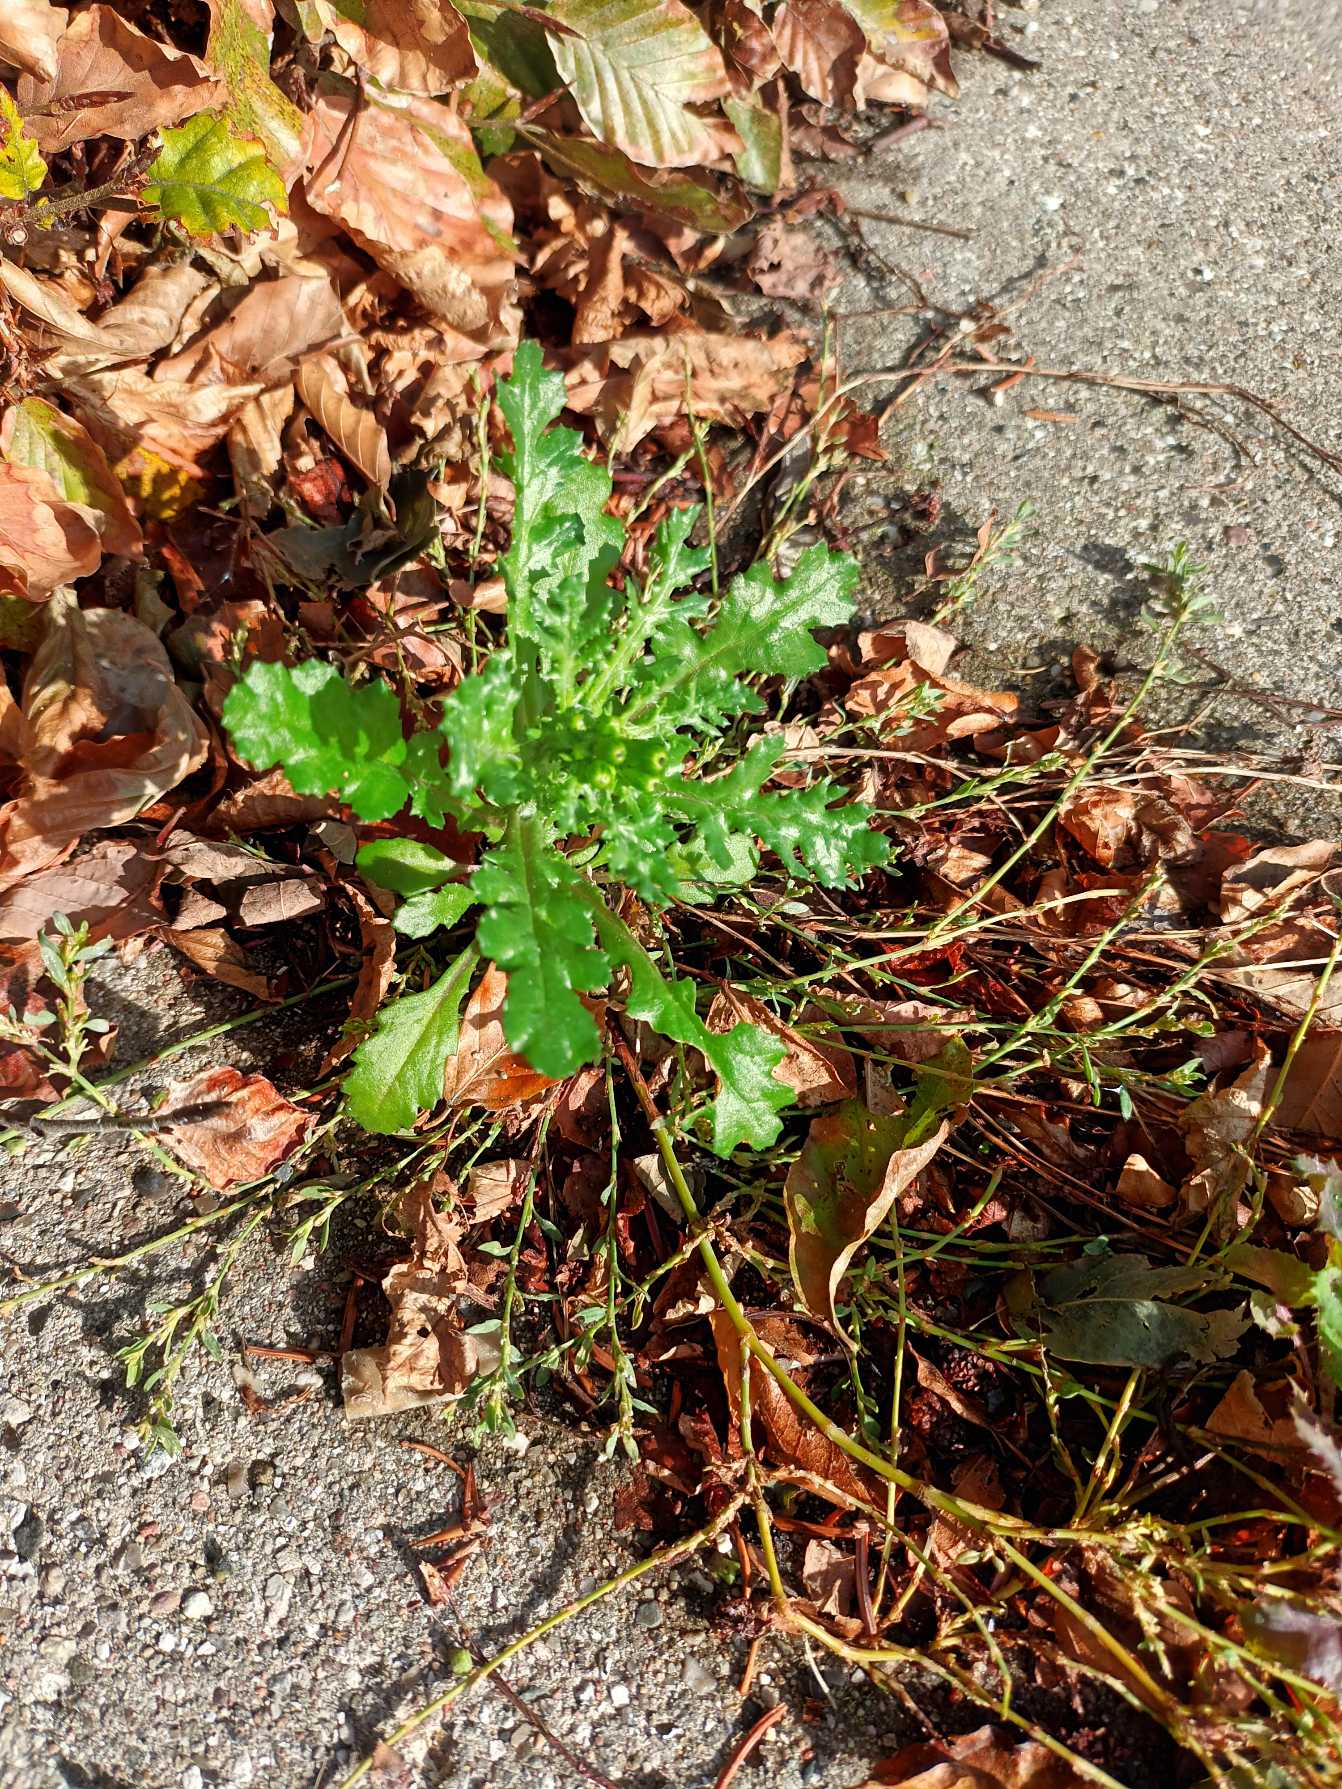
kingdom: Plantae
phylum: Tracheophyta
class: Magnoliopsida
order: Asterales
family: Asteraceae
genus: Senecio
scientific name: Senecio vulgaris
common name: Almindelig brandbæger
